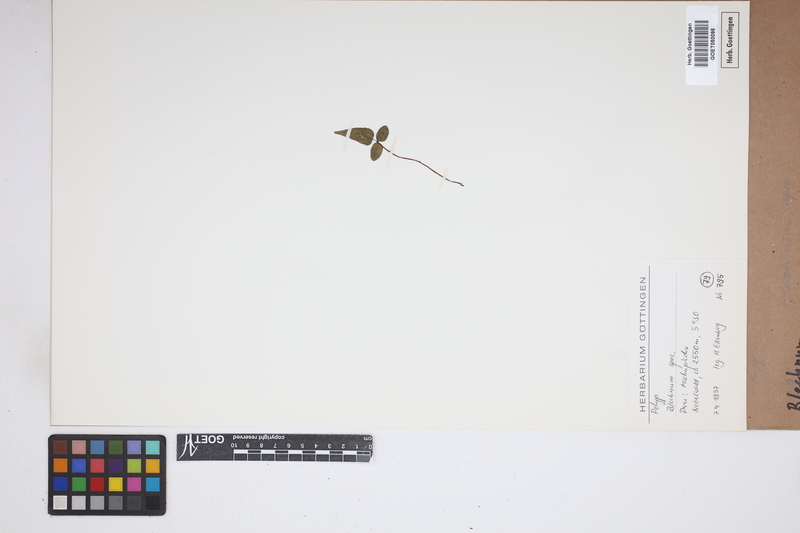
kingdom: Plantae
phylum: Tracheophyta
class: Polypodiopsida
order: Polypodiales
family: Blechnaceae
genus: Blechnum
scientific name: Blechnum
